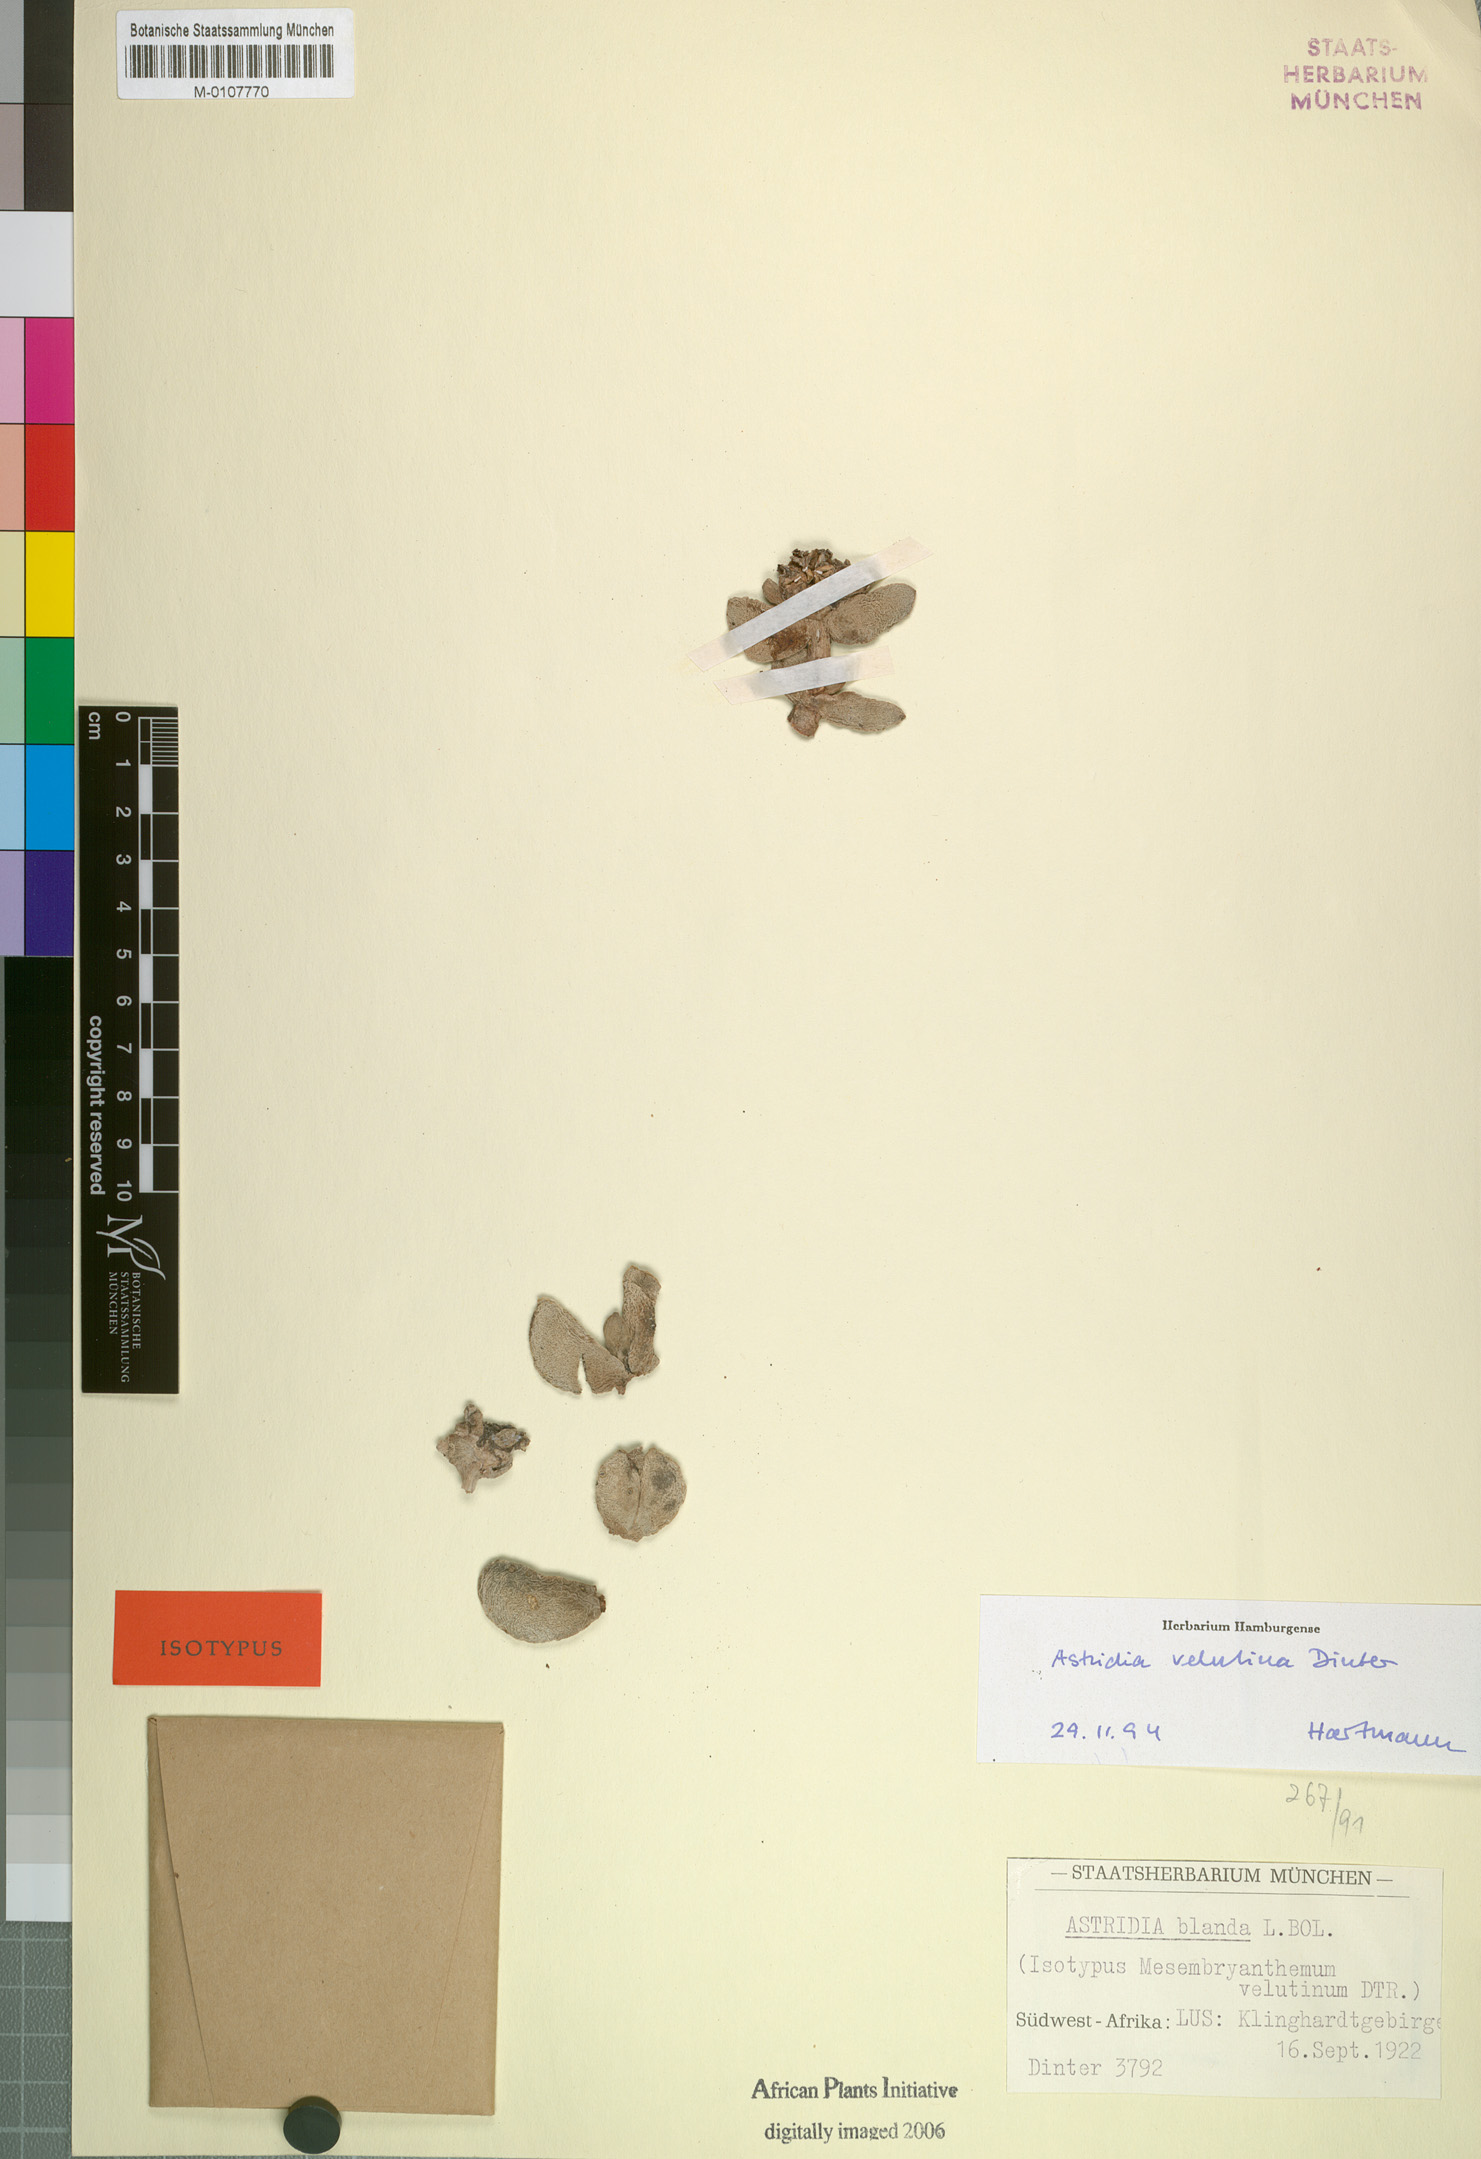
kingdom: Plantae
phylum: Tracheophyta
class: Magnoliopsida
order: Caryophyllales
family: Aizoaceae
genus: Astridia
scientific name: Astridia velutina
